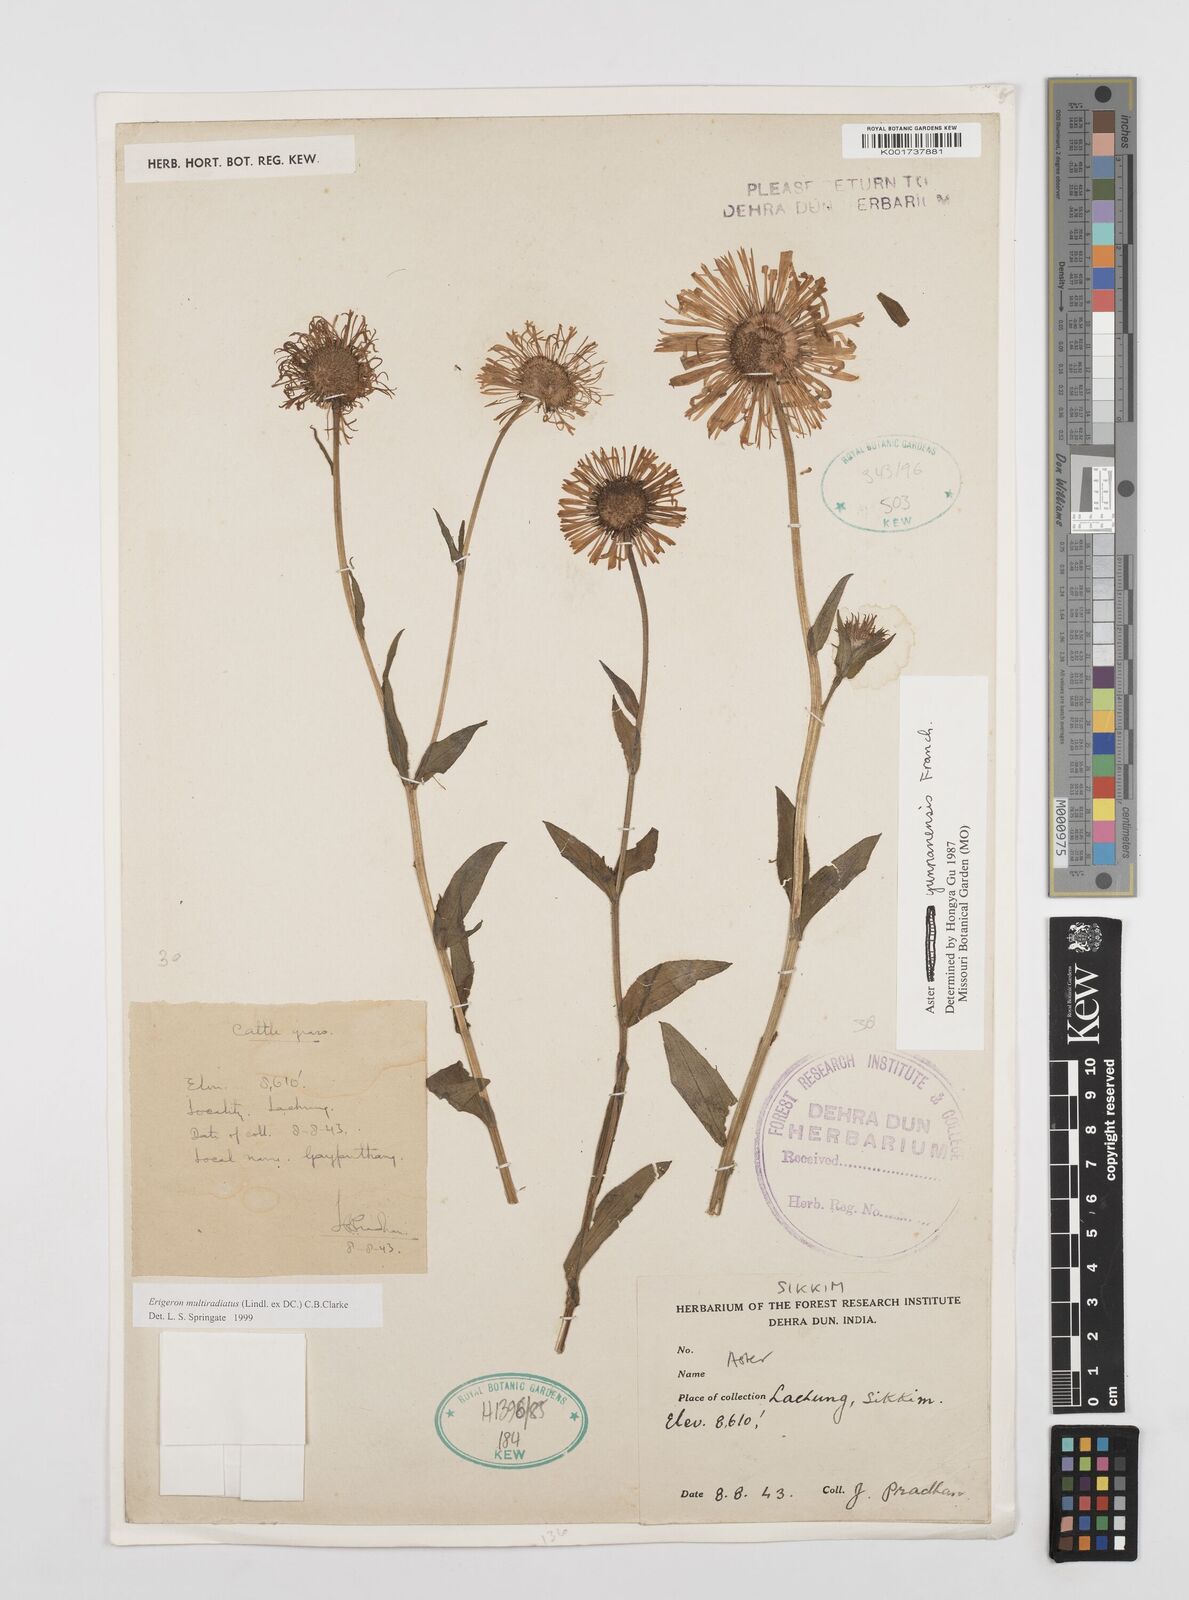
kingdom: Plantae
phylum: Tracheophyta
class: Magnoliopsida
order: Asterales
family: Asteraceae
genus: Erigeron
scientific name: Erigeron multiradiatus
